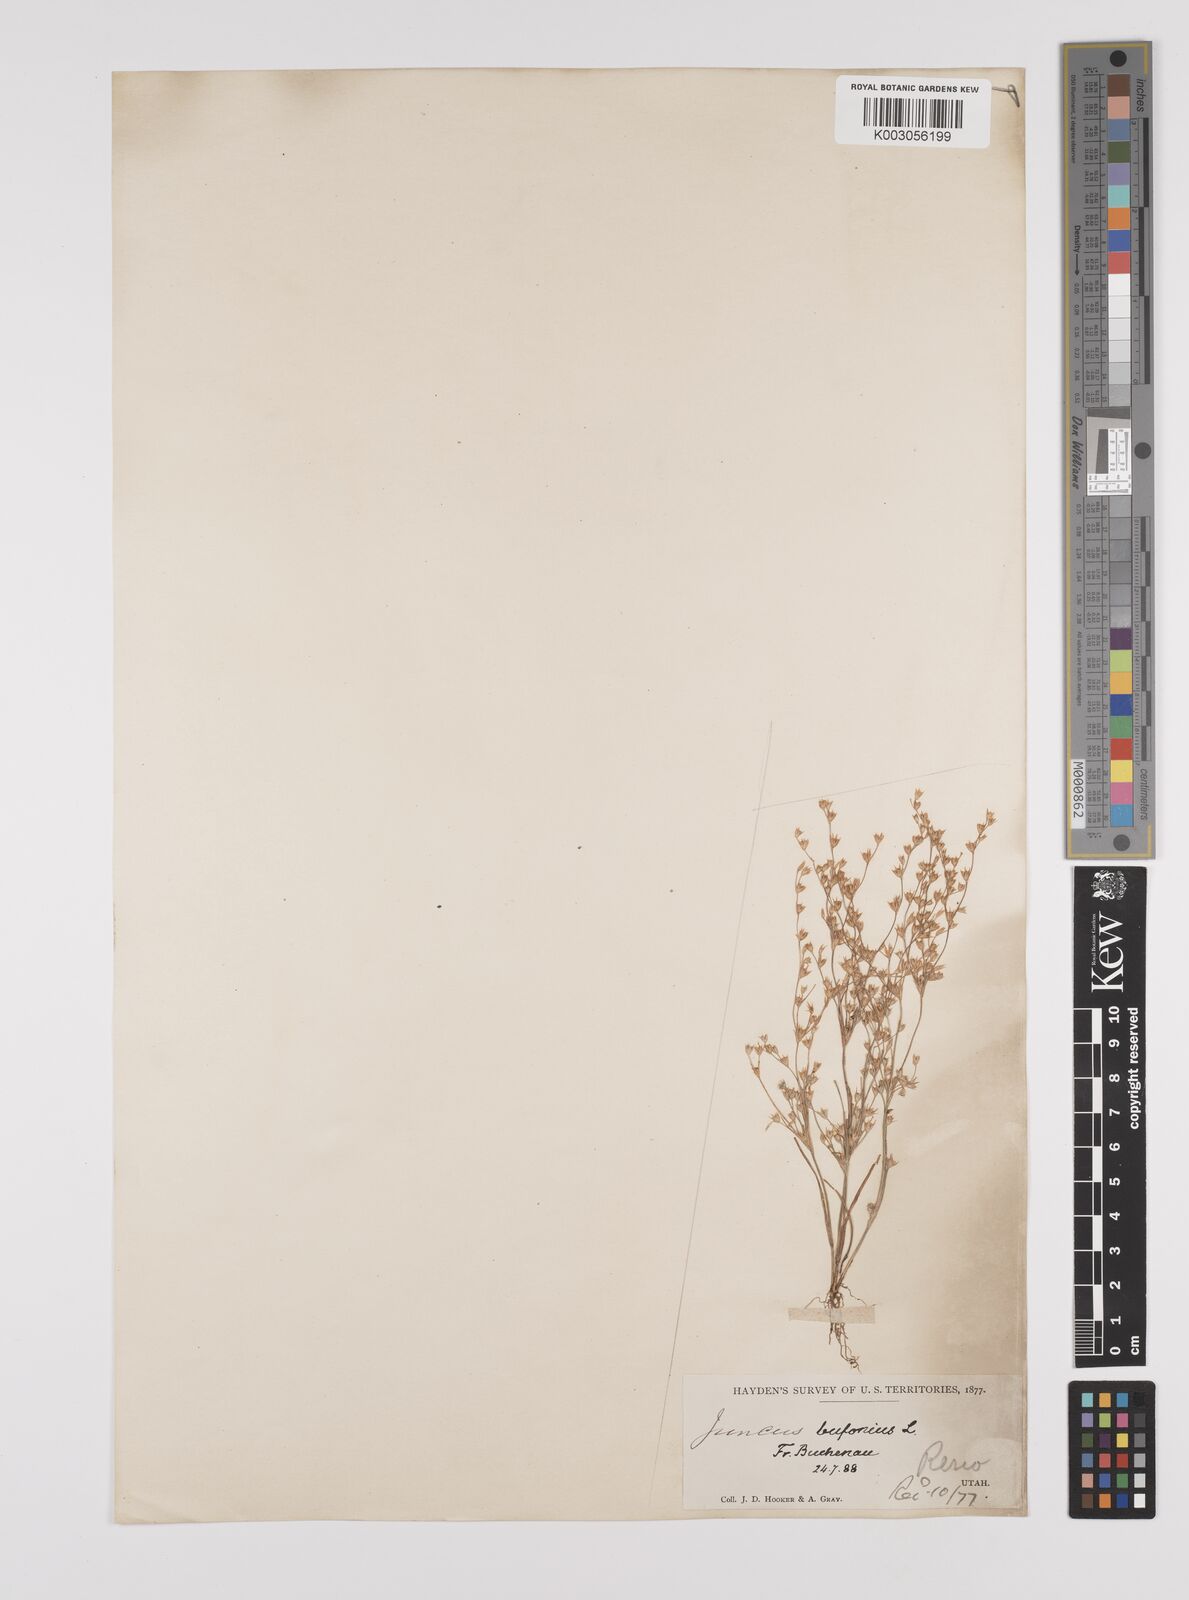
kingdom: Plantae
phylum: Tracheophyta
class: Liliopsida
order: Poales
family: Juncaceae
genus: Juncus
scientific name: Juncus bufonius
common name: Toad rush
